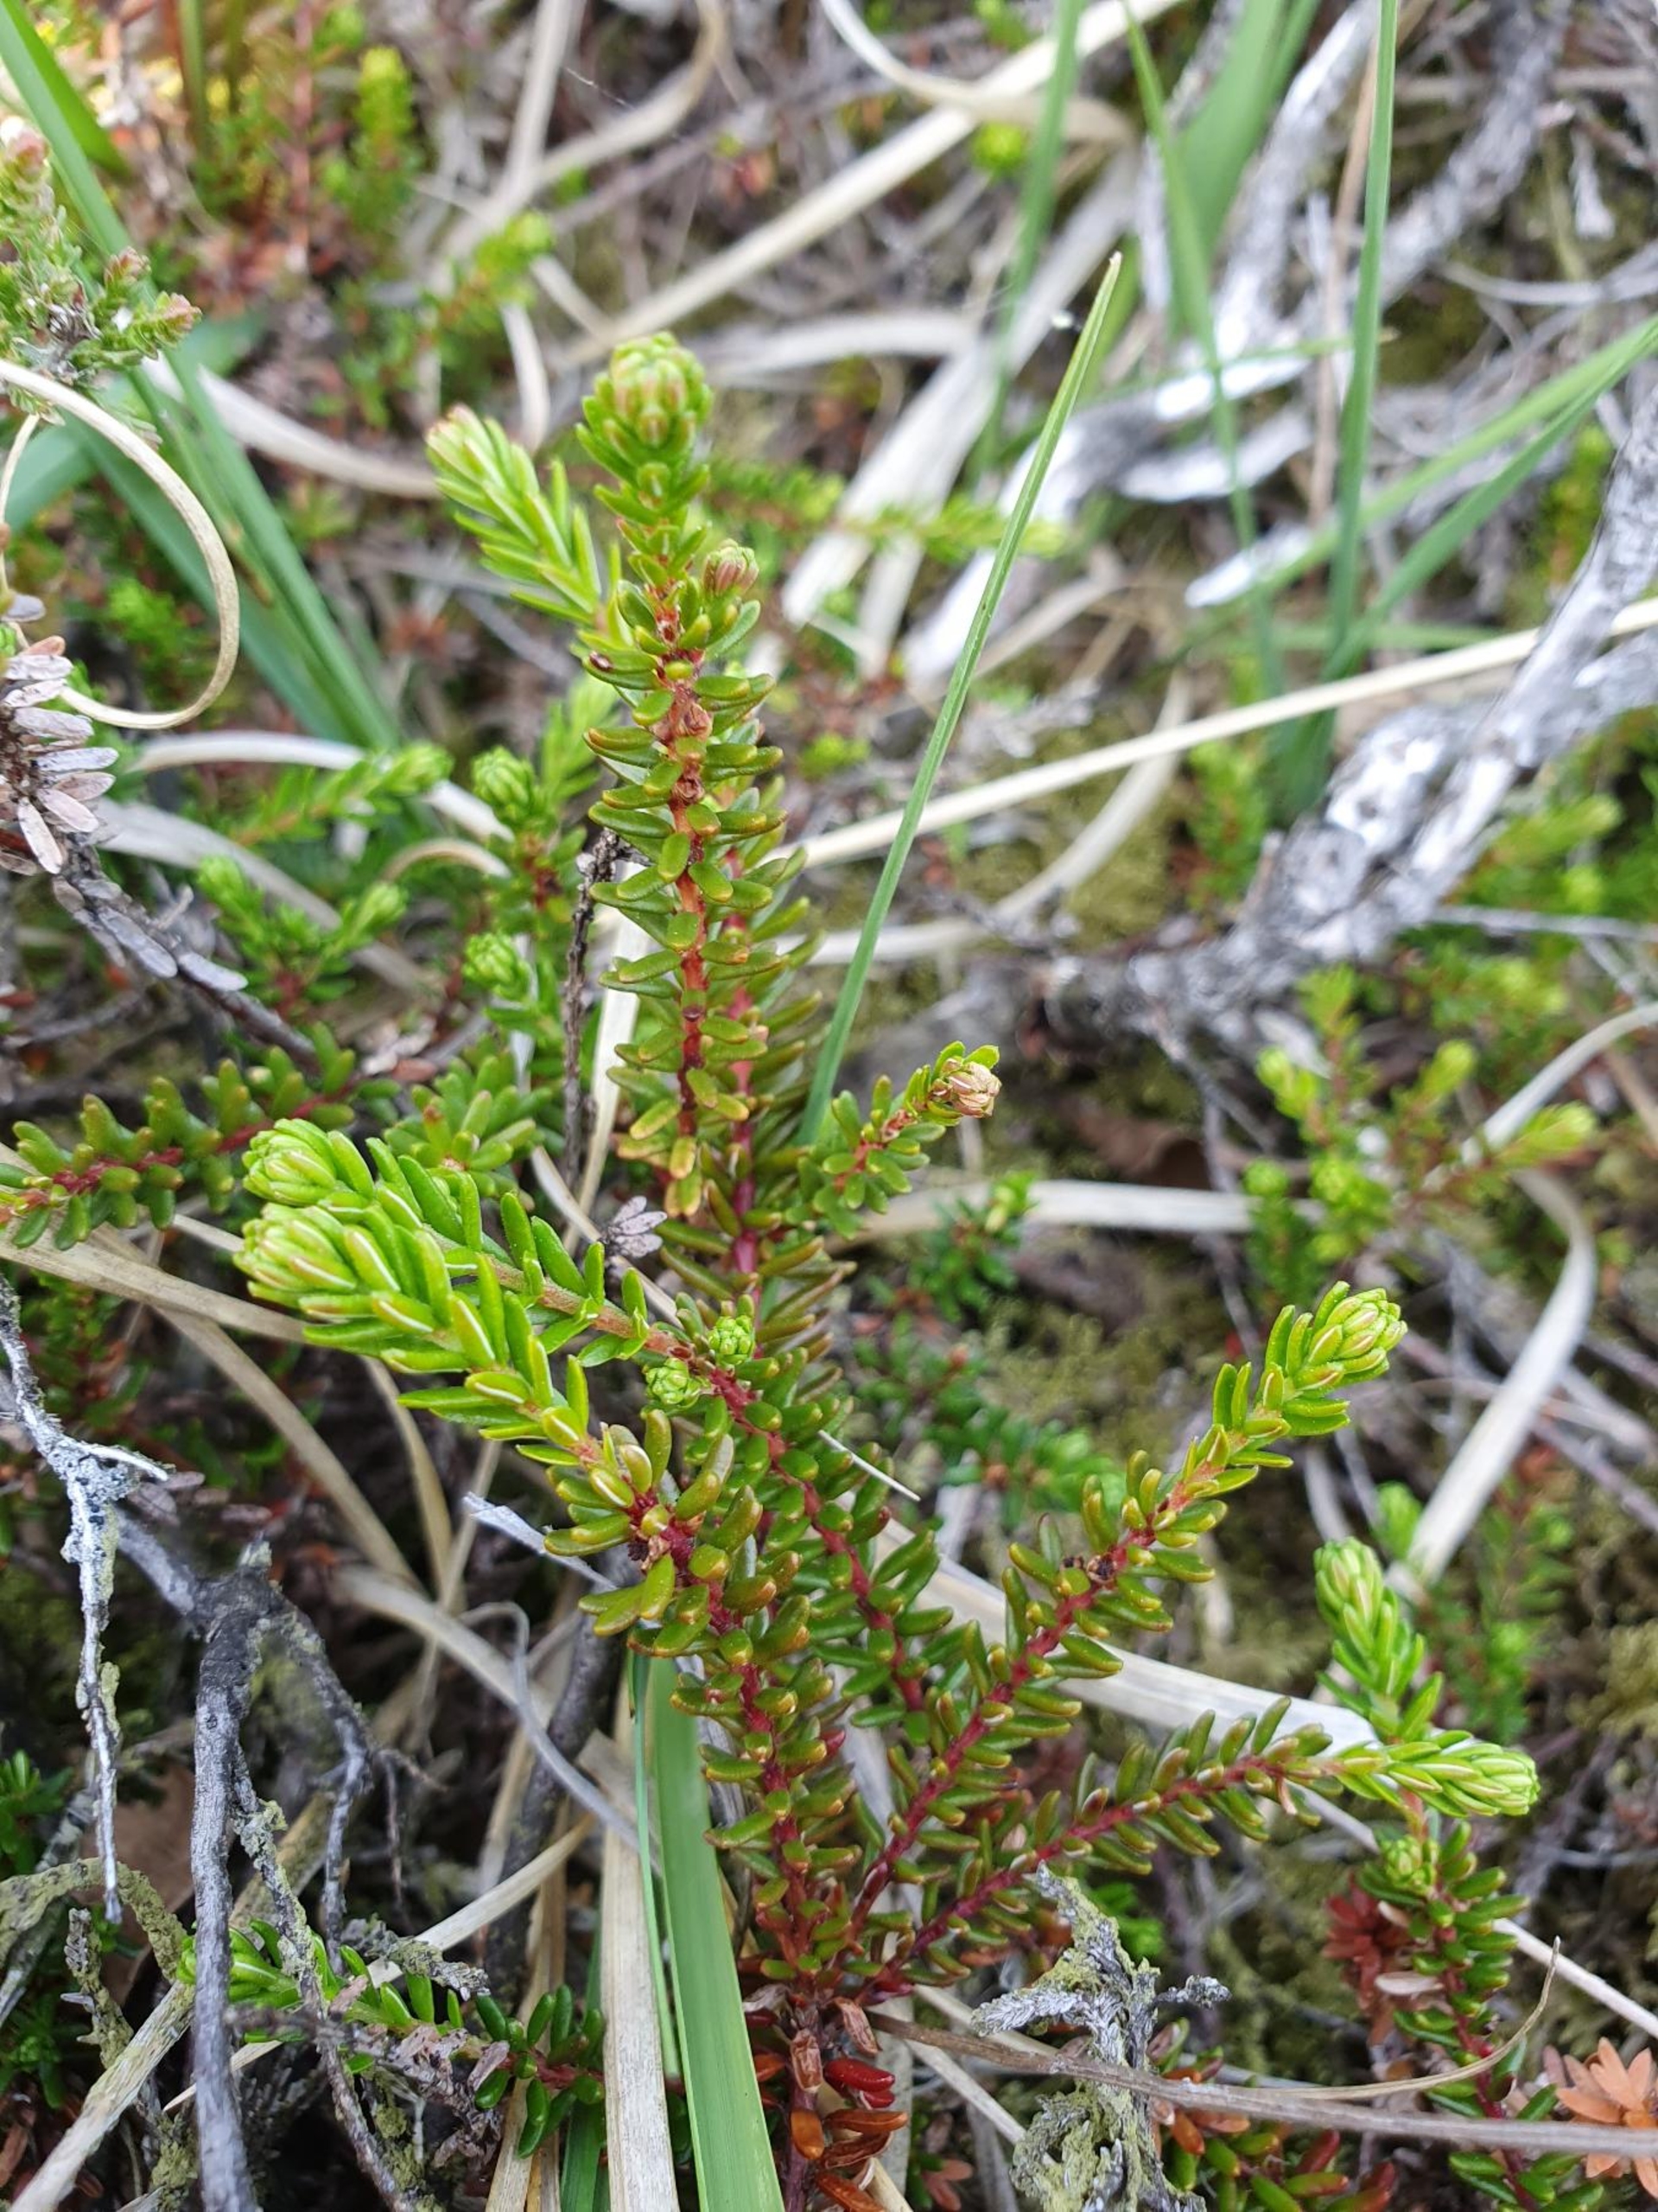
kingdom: Plantae
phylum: Tracheophyta
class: Magnoliopsida
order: Ericales
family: Ericaceae
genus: Empetrum
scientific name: Empetrum nigrum
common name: Revling
